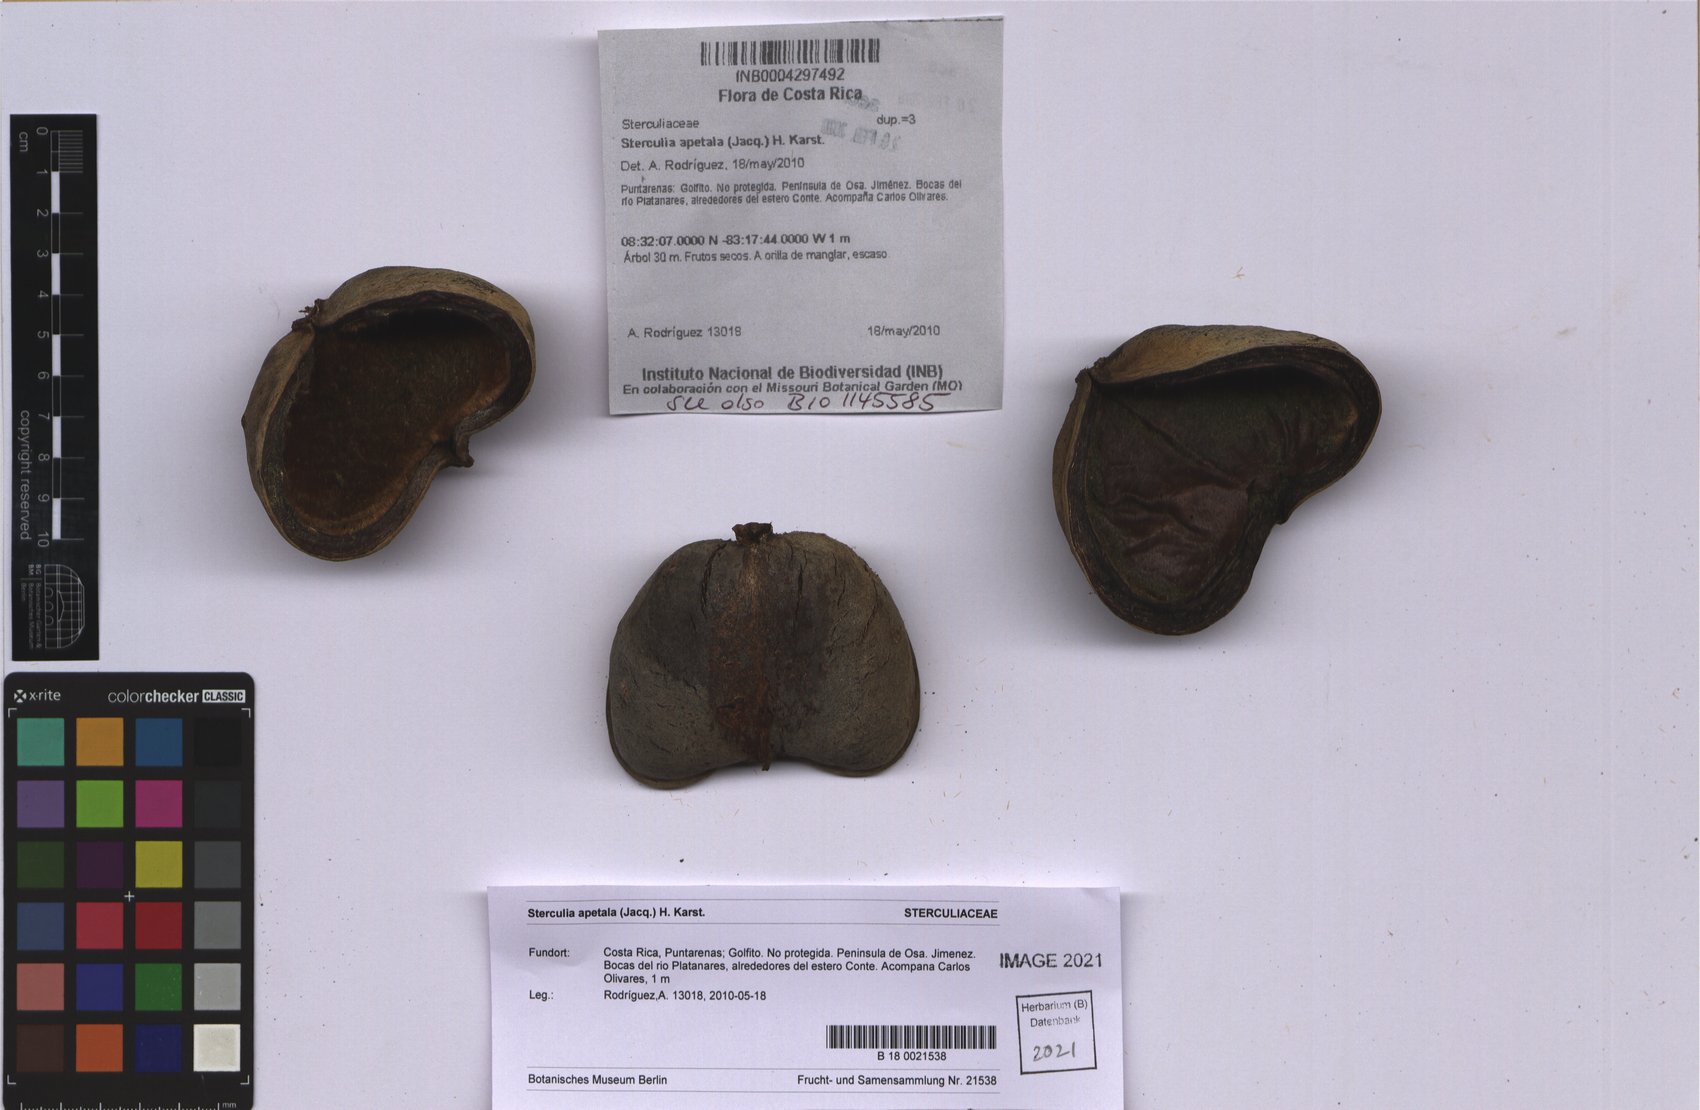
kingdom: Plantae
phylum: Tracheophyta
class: Magnoliopsida
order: Malvales
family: Malvaceae
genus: Sterculia
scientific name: Sterculia apetala
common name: Panama tree
